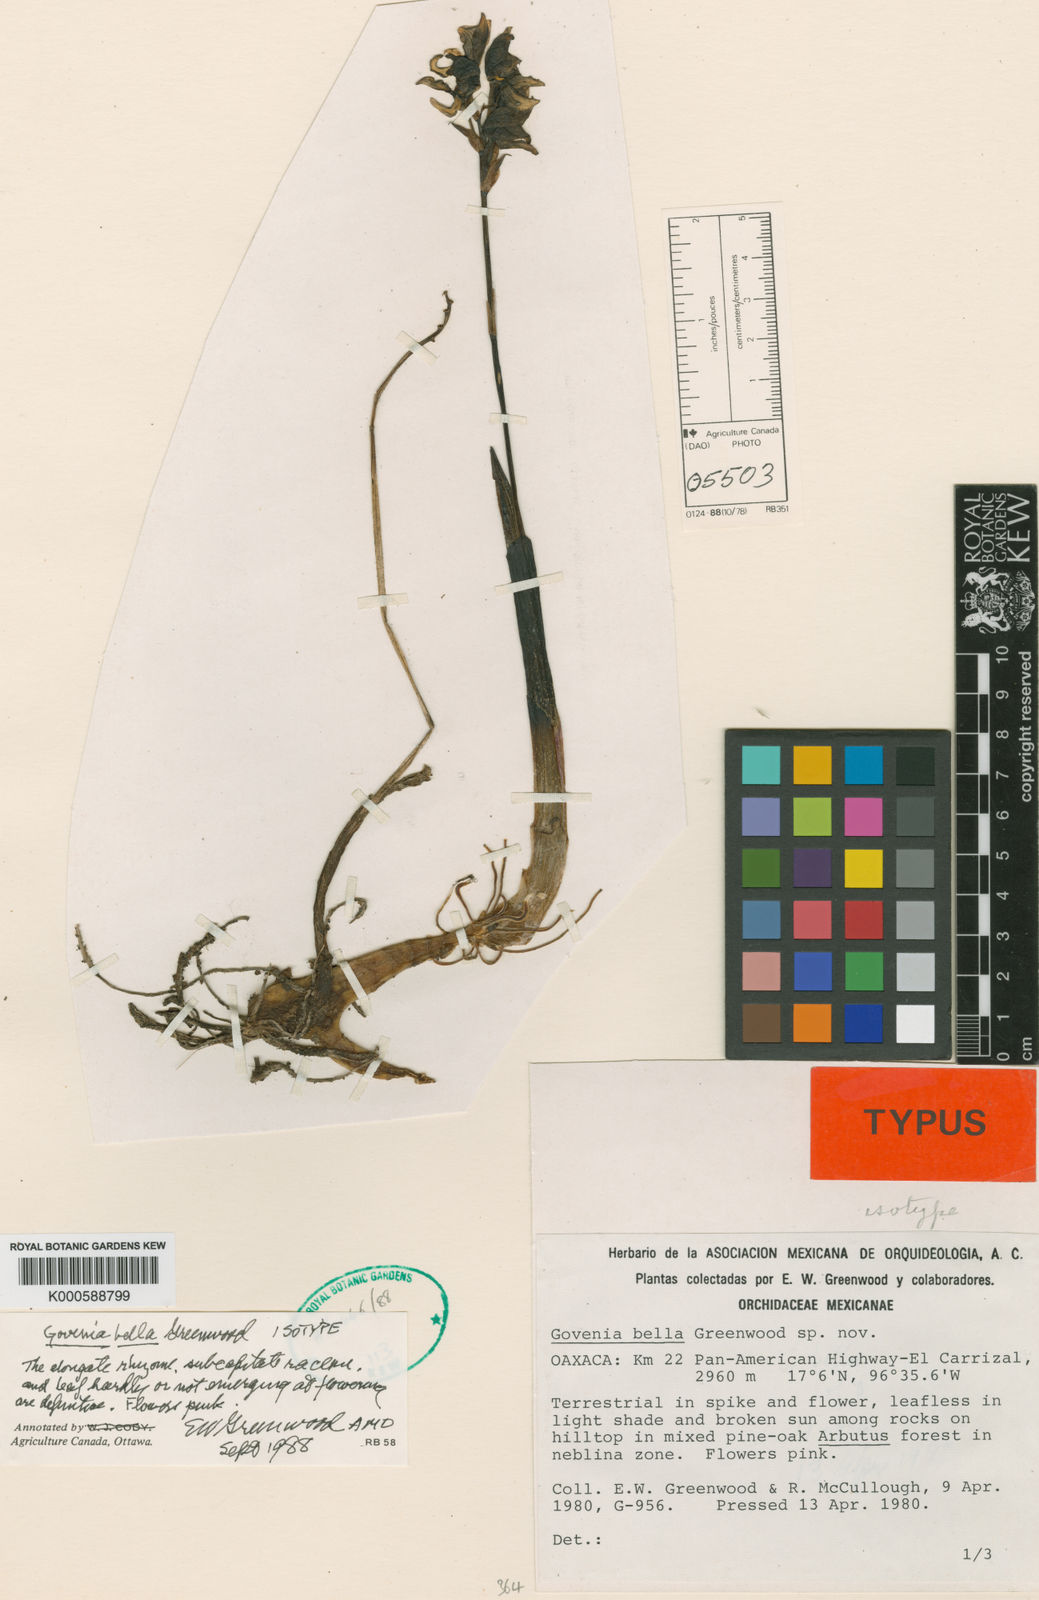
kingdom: Plantae
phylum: Tracheophyta
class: Liliopsida
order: Asparagales
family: Orchidaceae
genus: Govenia
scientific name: Govenia bella
